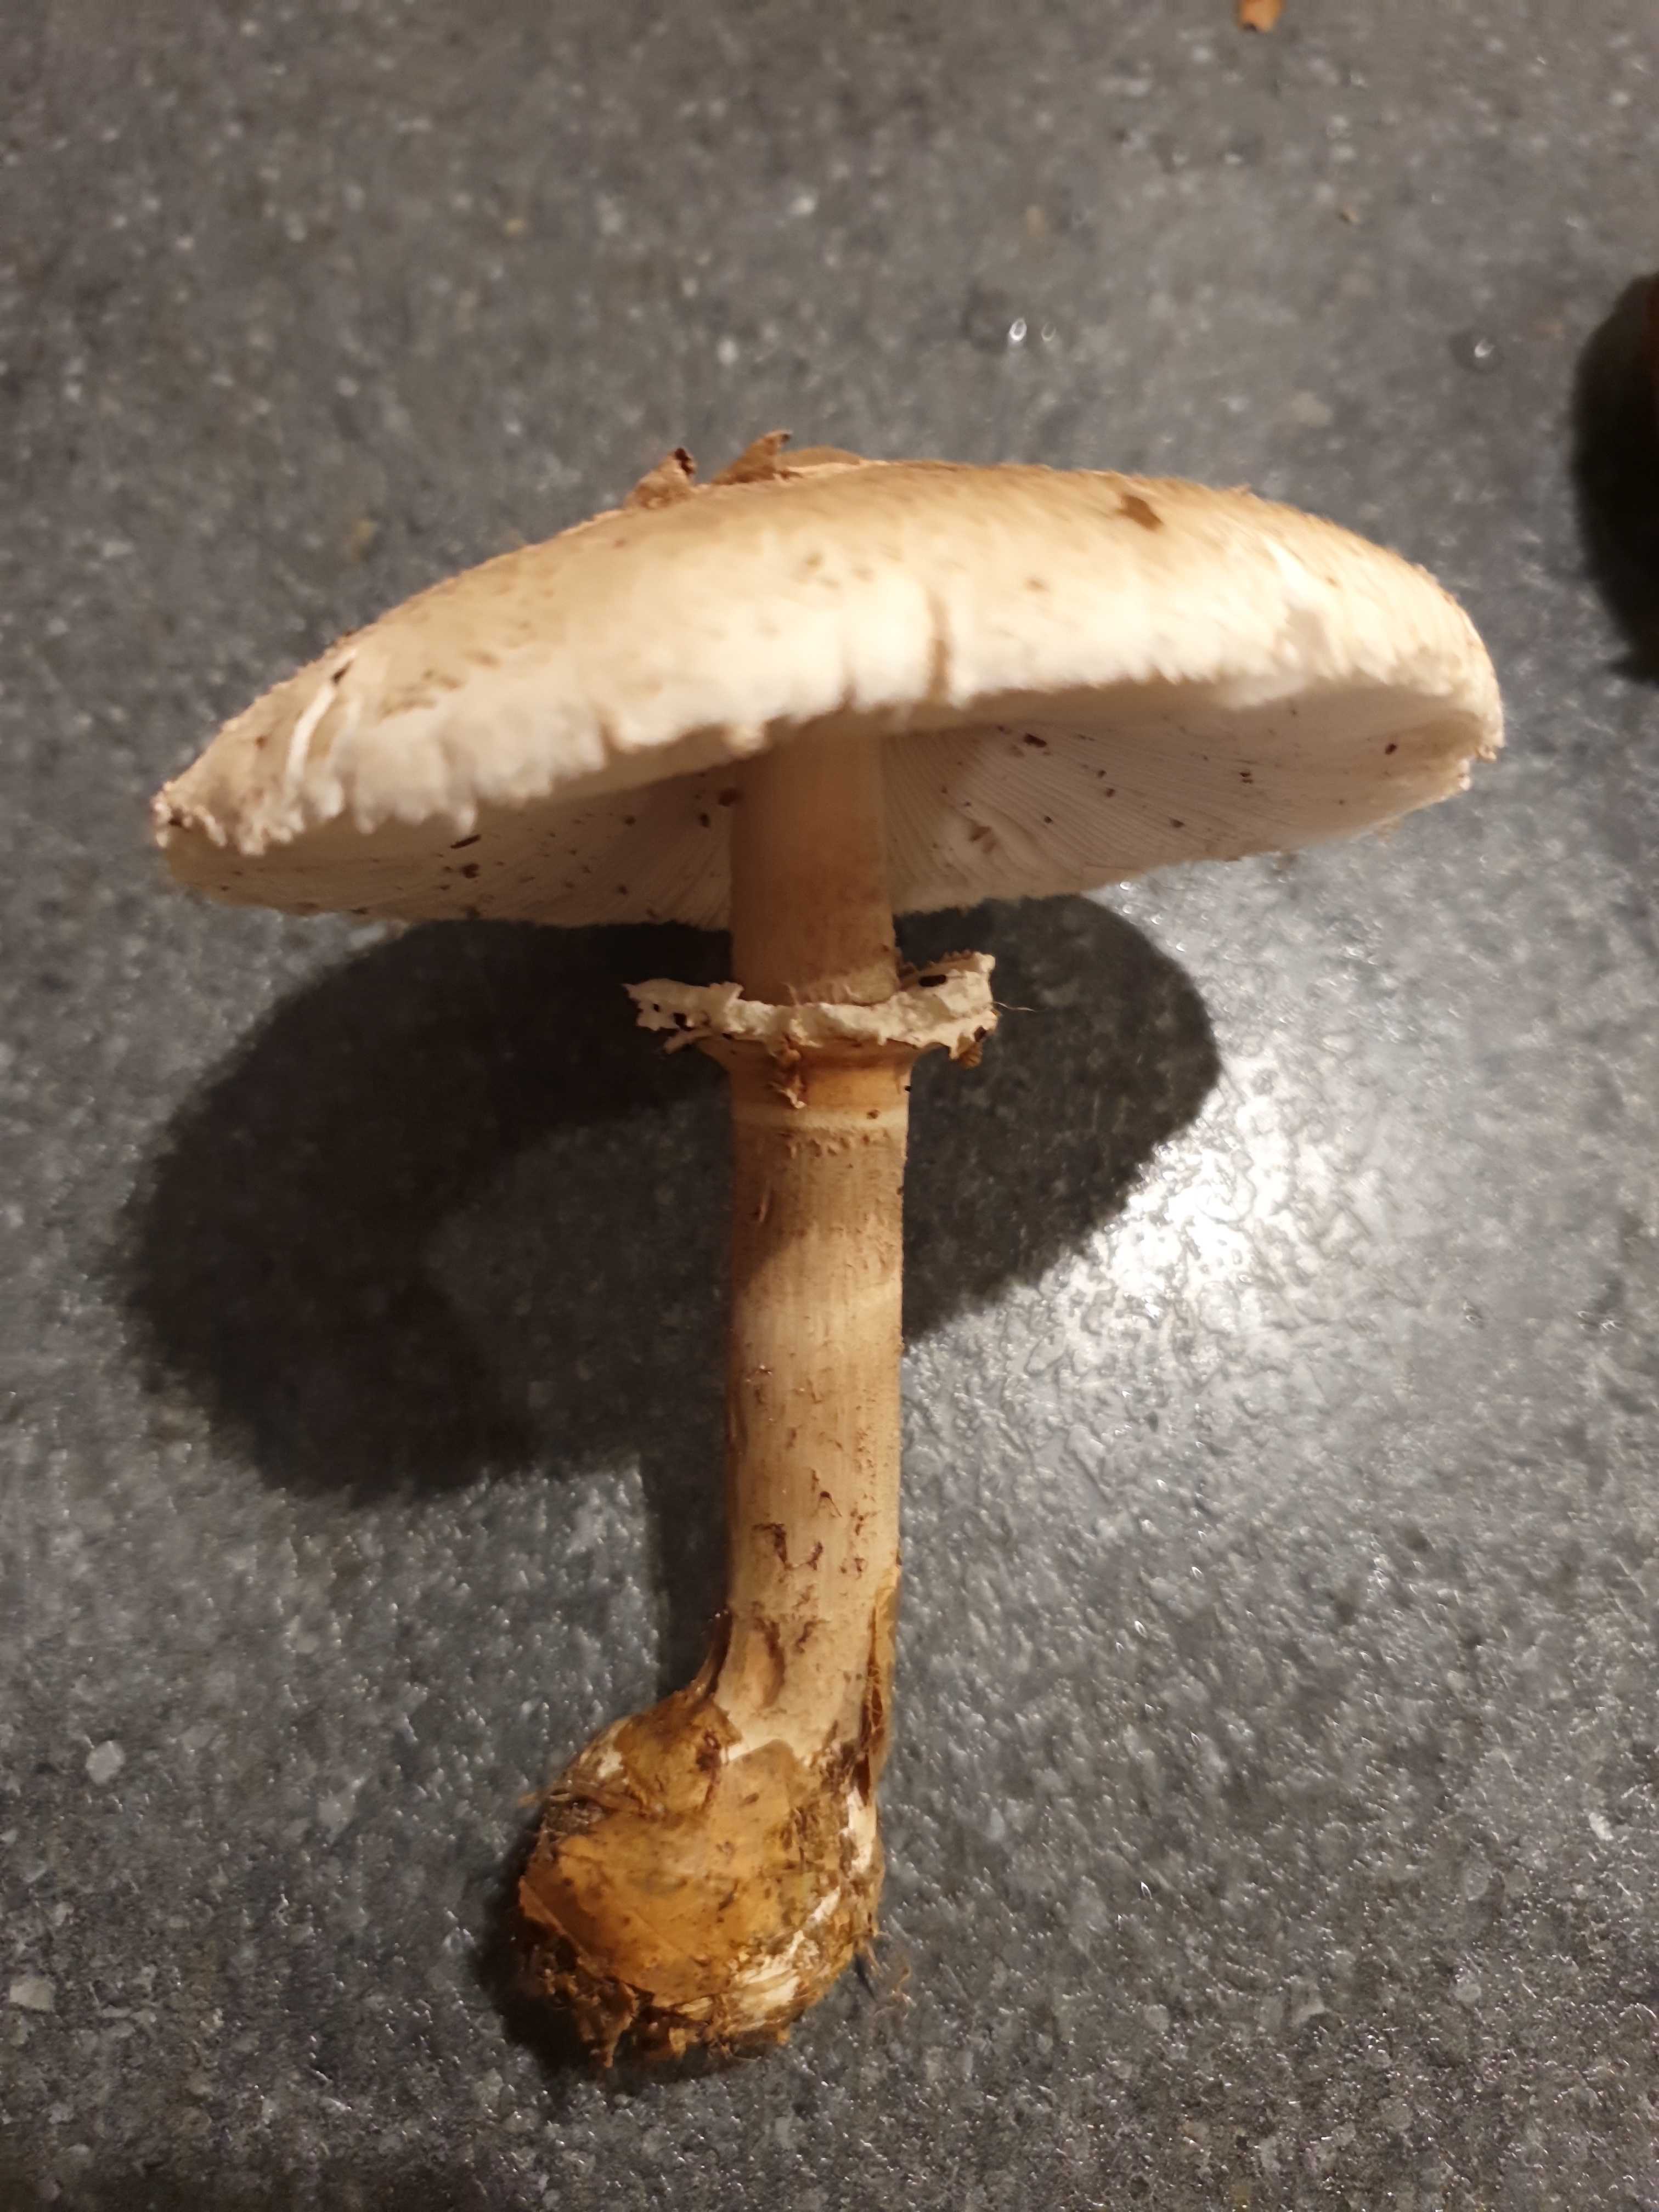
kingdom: Fungi
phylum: Basidiomycota
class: Agaricomycetes
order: Agaricales
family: Agaricaceae
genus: Macrolepiota
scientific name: Macrolepiota
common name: kæmpeparasolhat
